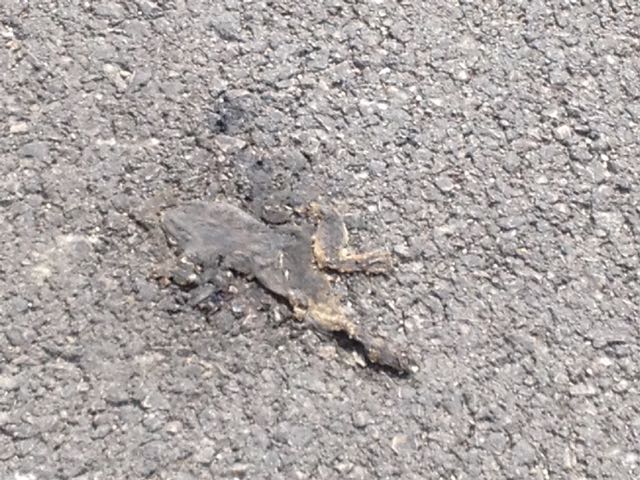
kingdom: Animalia
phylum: Chordata
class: Amphibia
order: Anura
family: Bufonidae
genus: Bufo
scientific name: Bufo bufo
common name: Common toad
